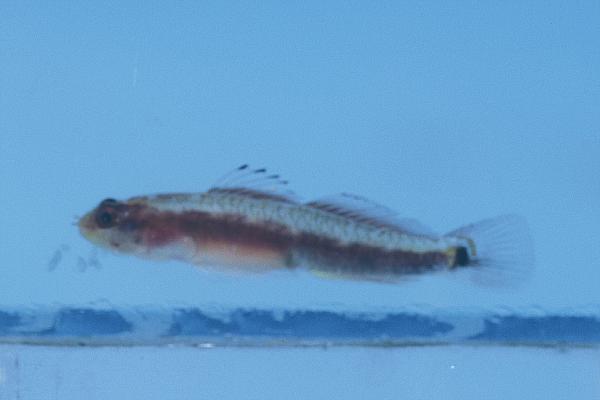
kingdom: Animalia
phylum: Chordata
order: Perciformes
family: Gobiidae
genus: Eviota
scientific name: Eviota sebreei
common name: Sebree's pygmy goby
